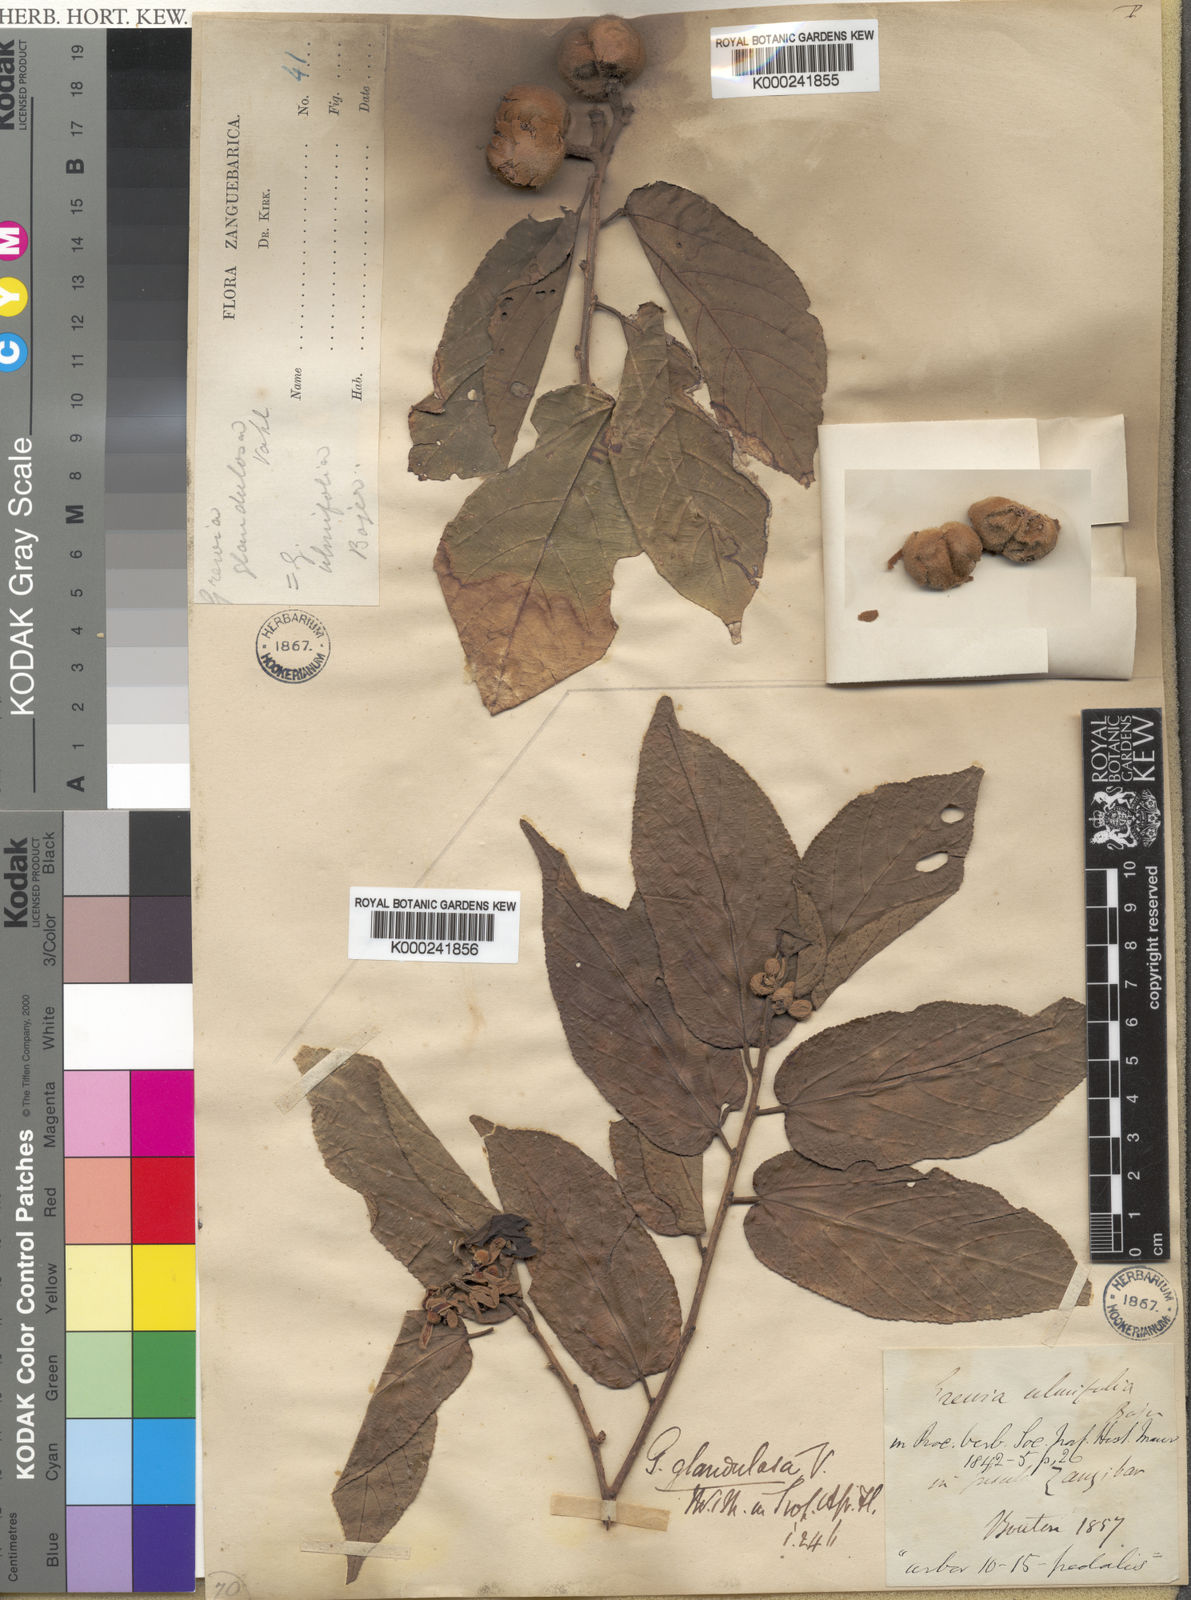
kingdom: Plantae
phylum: Tracheophyta
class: Magnoliopsida
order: Malvales
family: Malvaceae
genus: Grewia
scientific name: Grewia glandulosa
